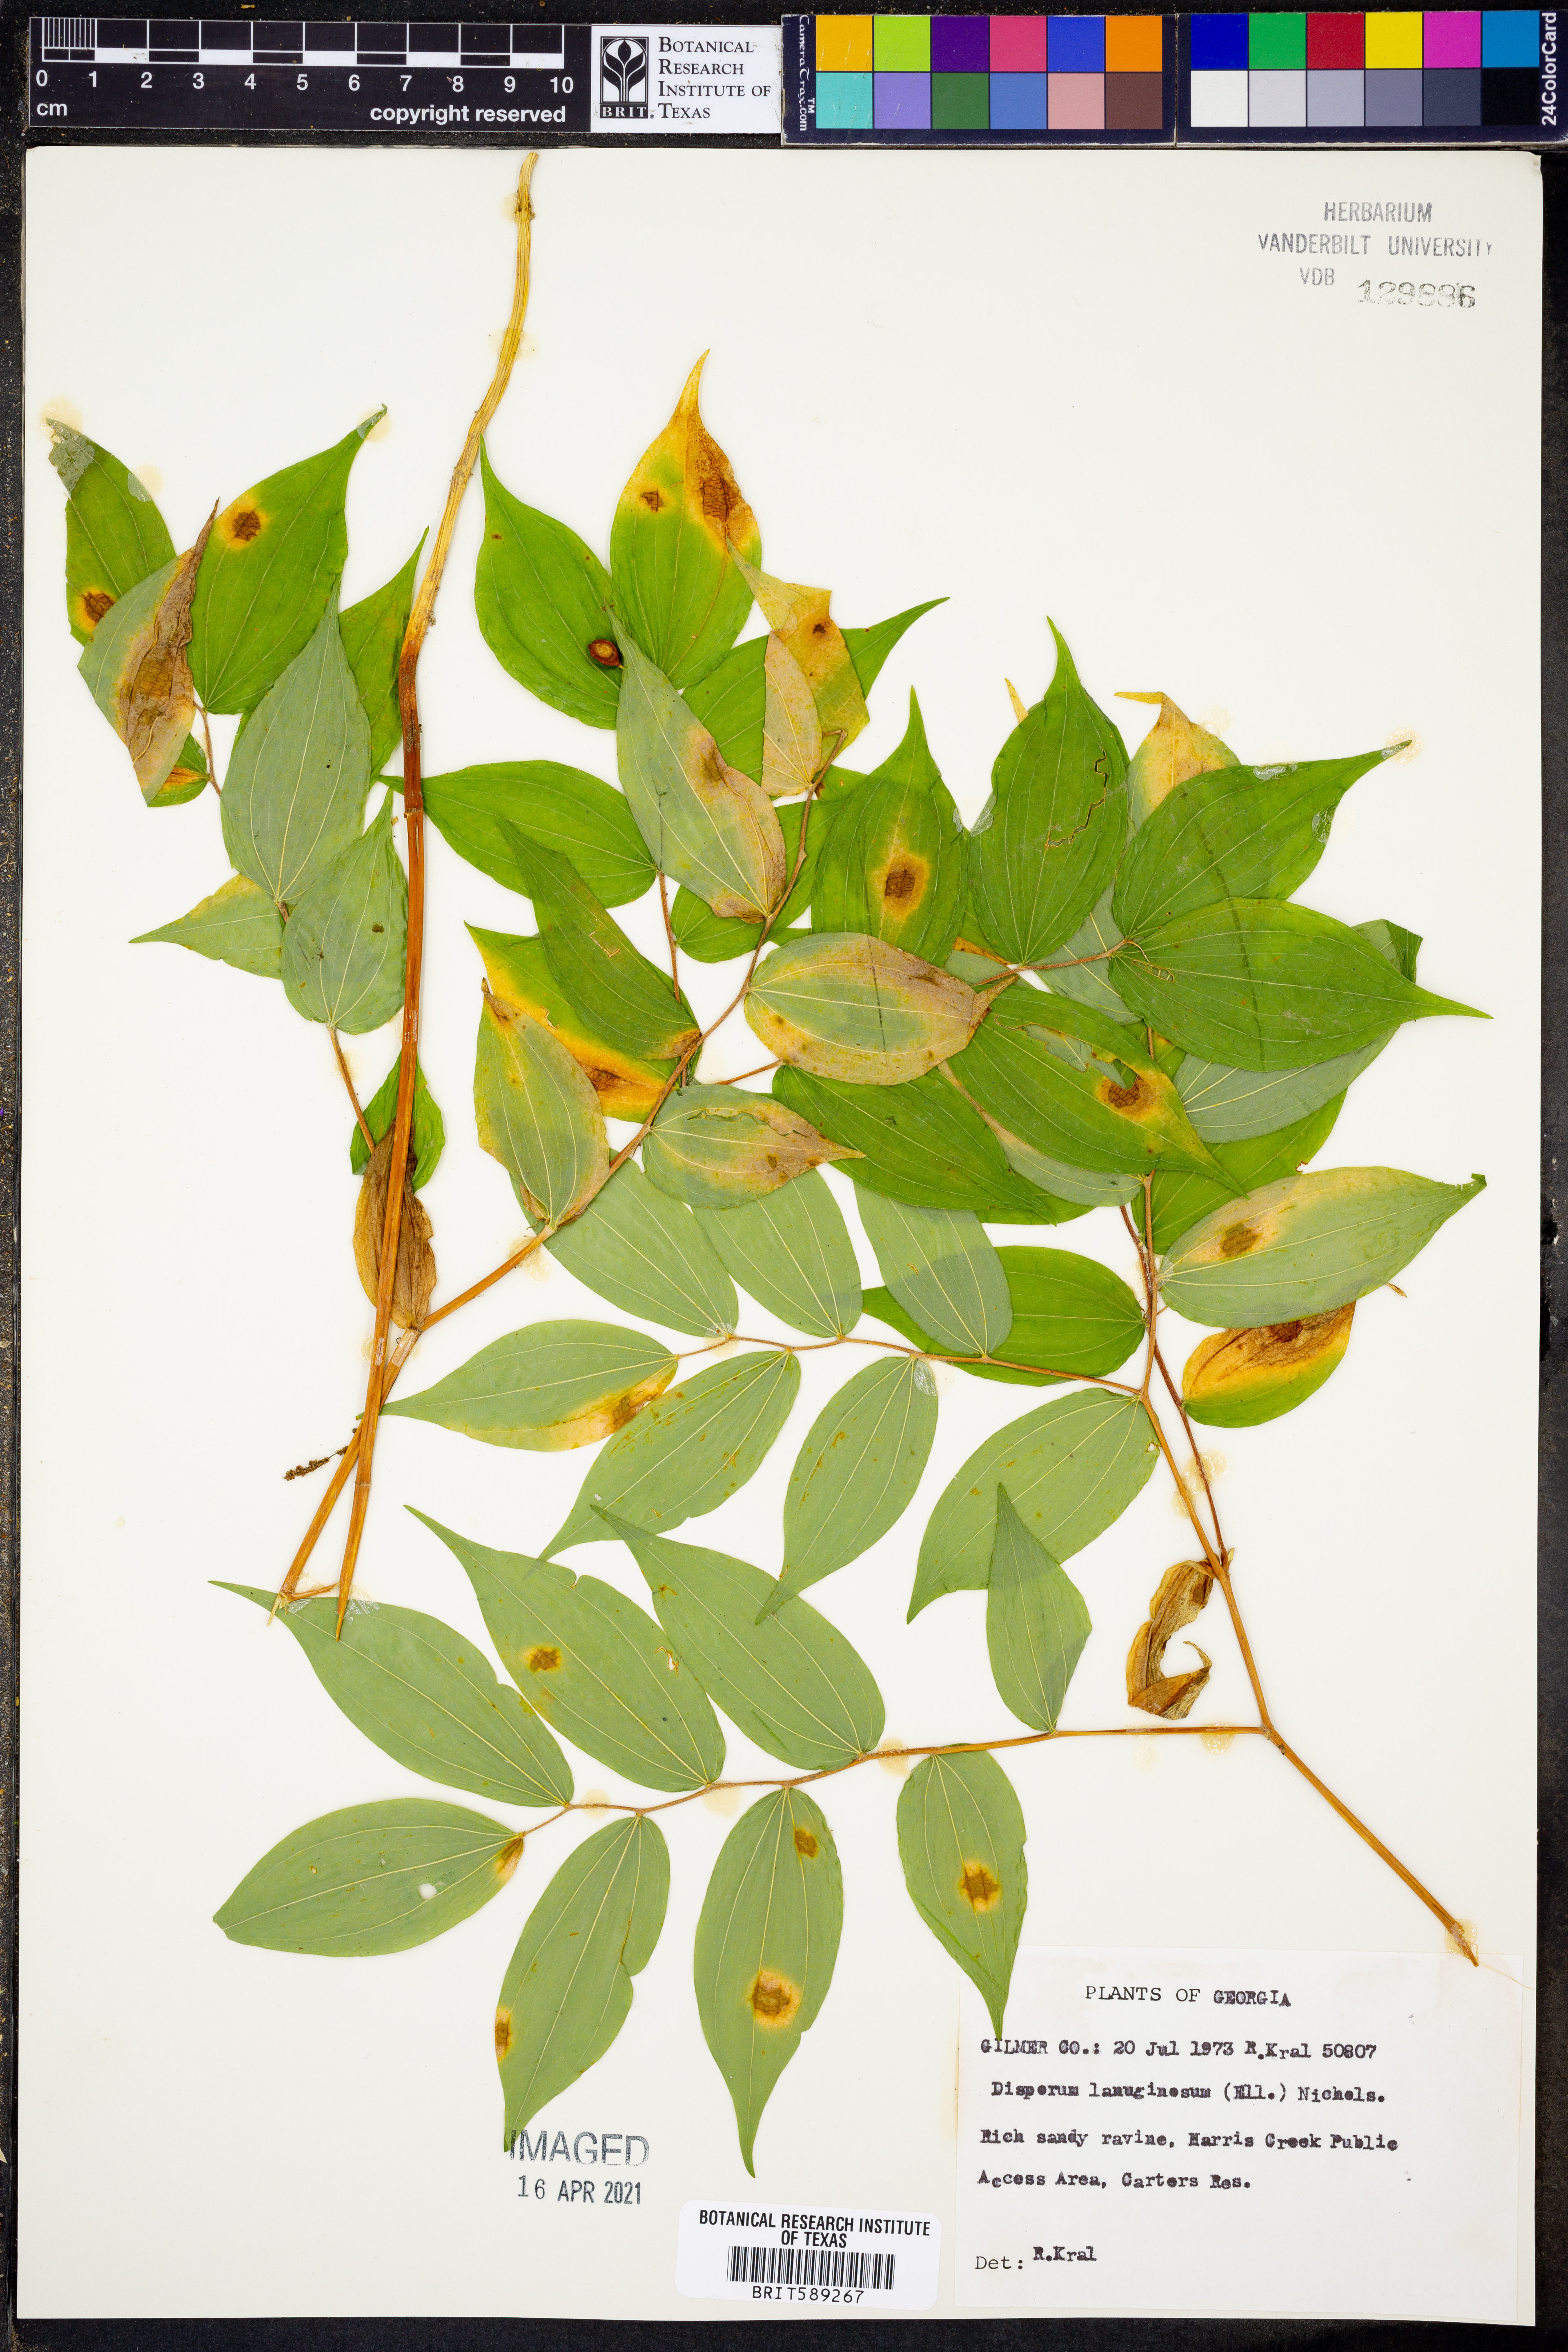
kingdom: Plantae
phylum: Tracheophyta
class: Liliopsida
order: Liliales
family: Liliaceae
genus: Prosartes
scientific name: Prosartes lanuginosa
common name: Hairy mandarin
